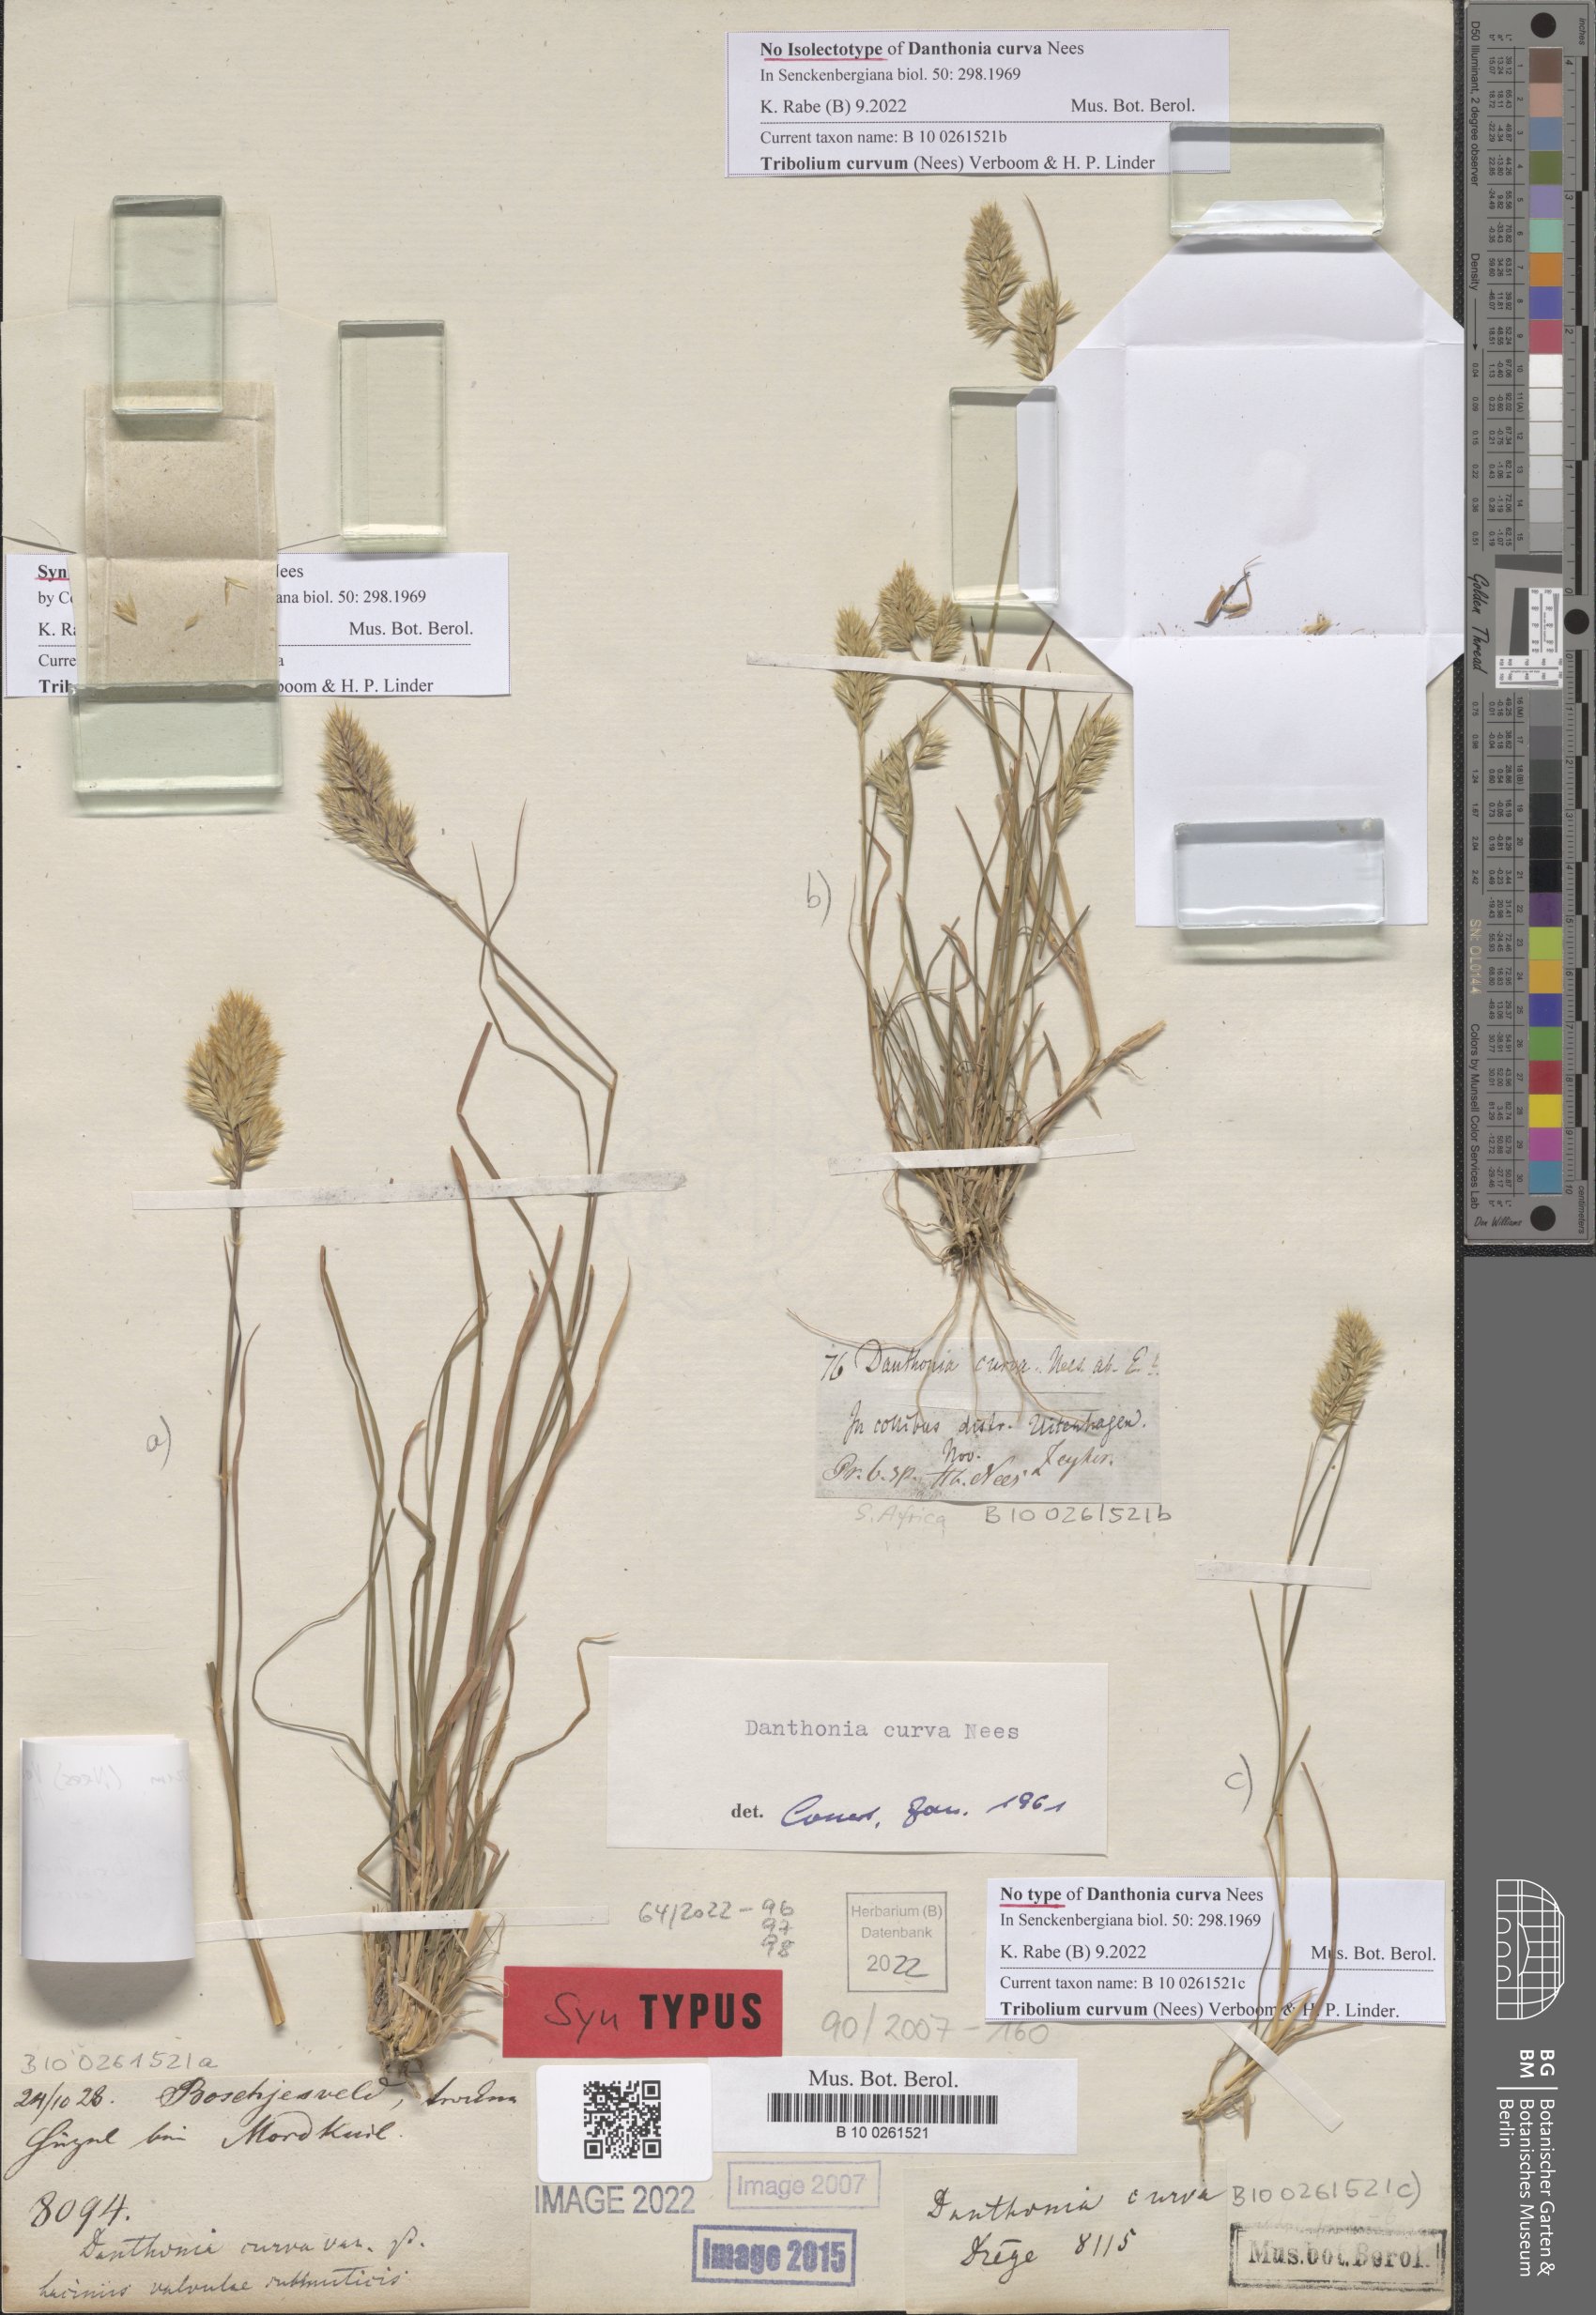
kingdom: Plantae
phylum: Tracheophyta
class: Liliopsida
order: Poales
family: Poaceae
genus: Tribolium
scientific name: Tribolium curvum
